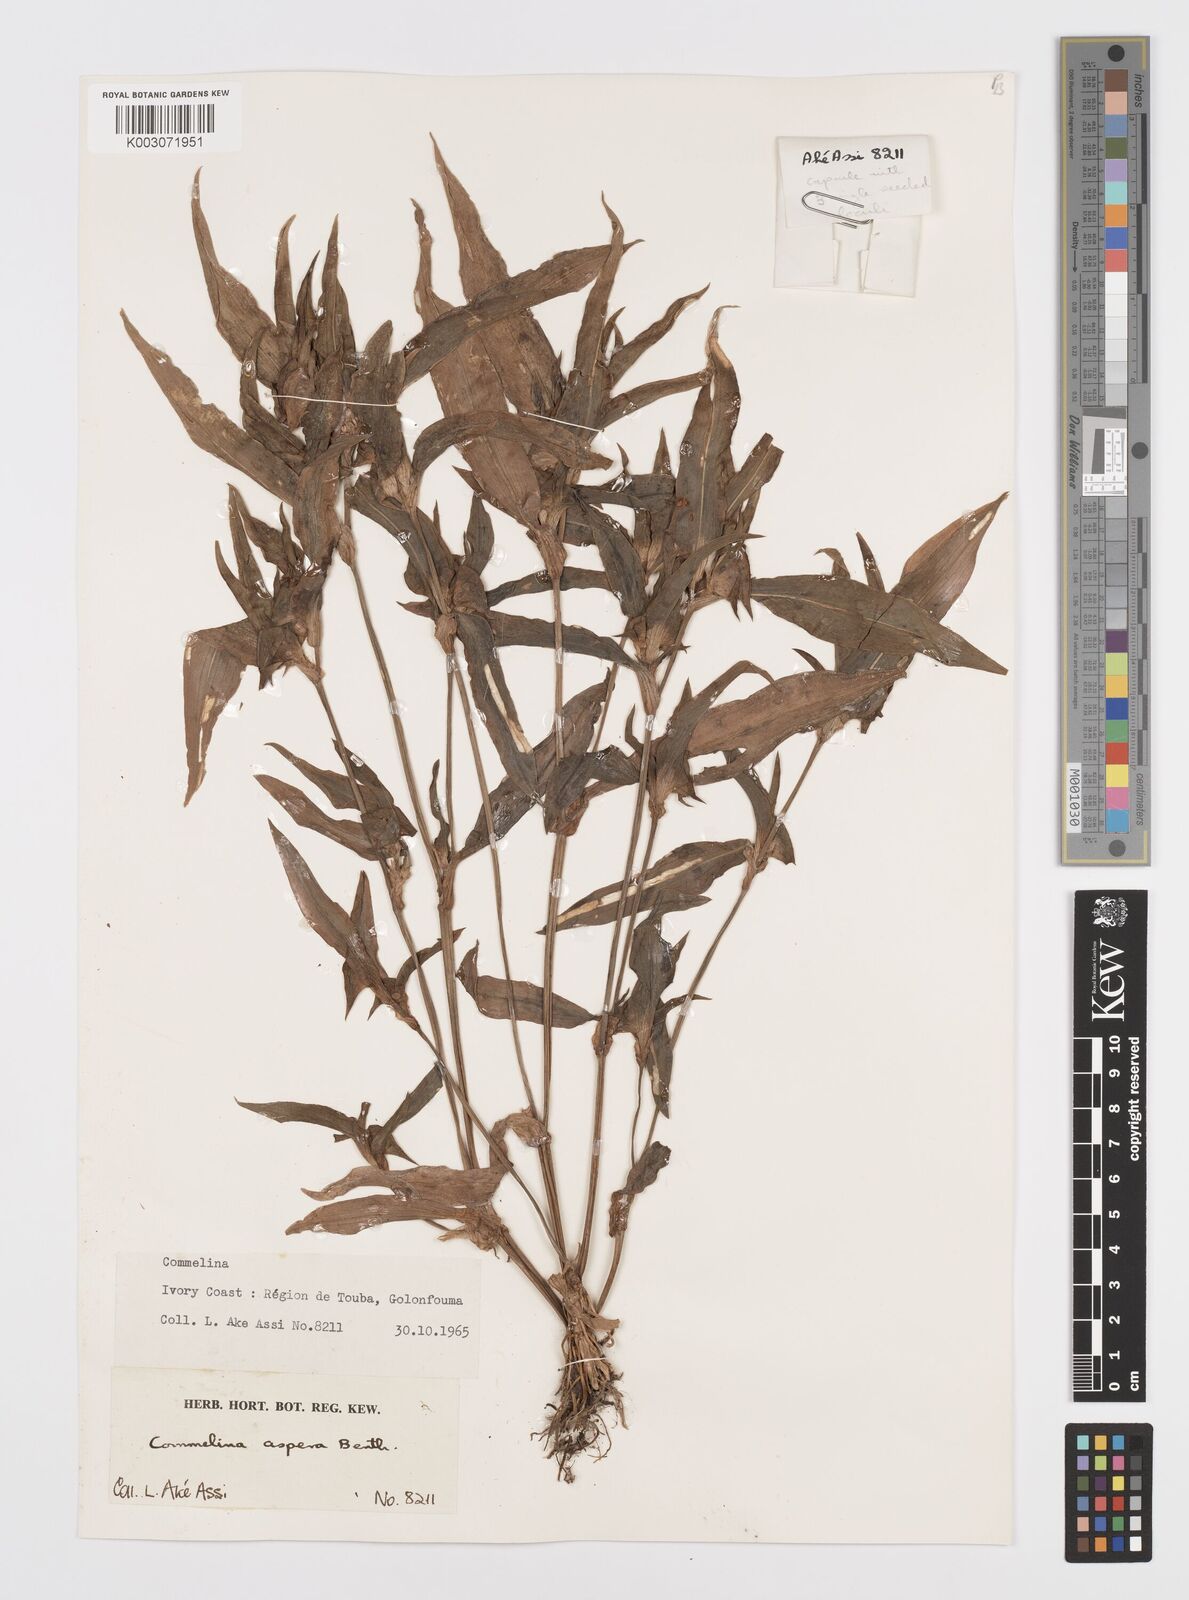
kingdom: Plantae
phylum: Tracheophyta
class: Liliopsida
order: Commelinales
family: Commelinaceae
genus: Commelina
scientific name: Commelina aspera
